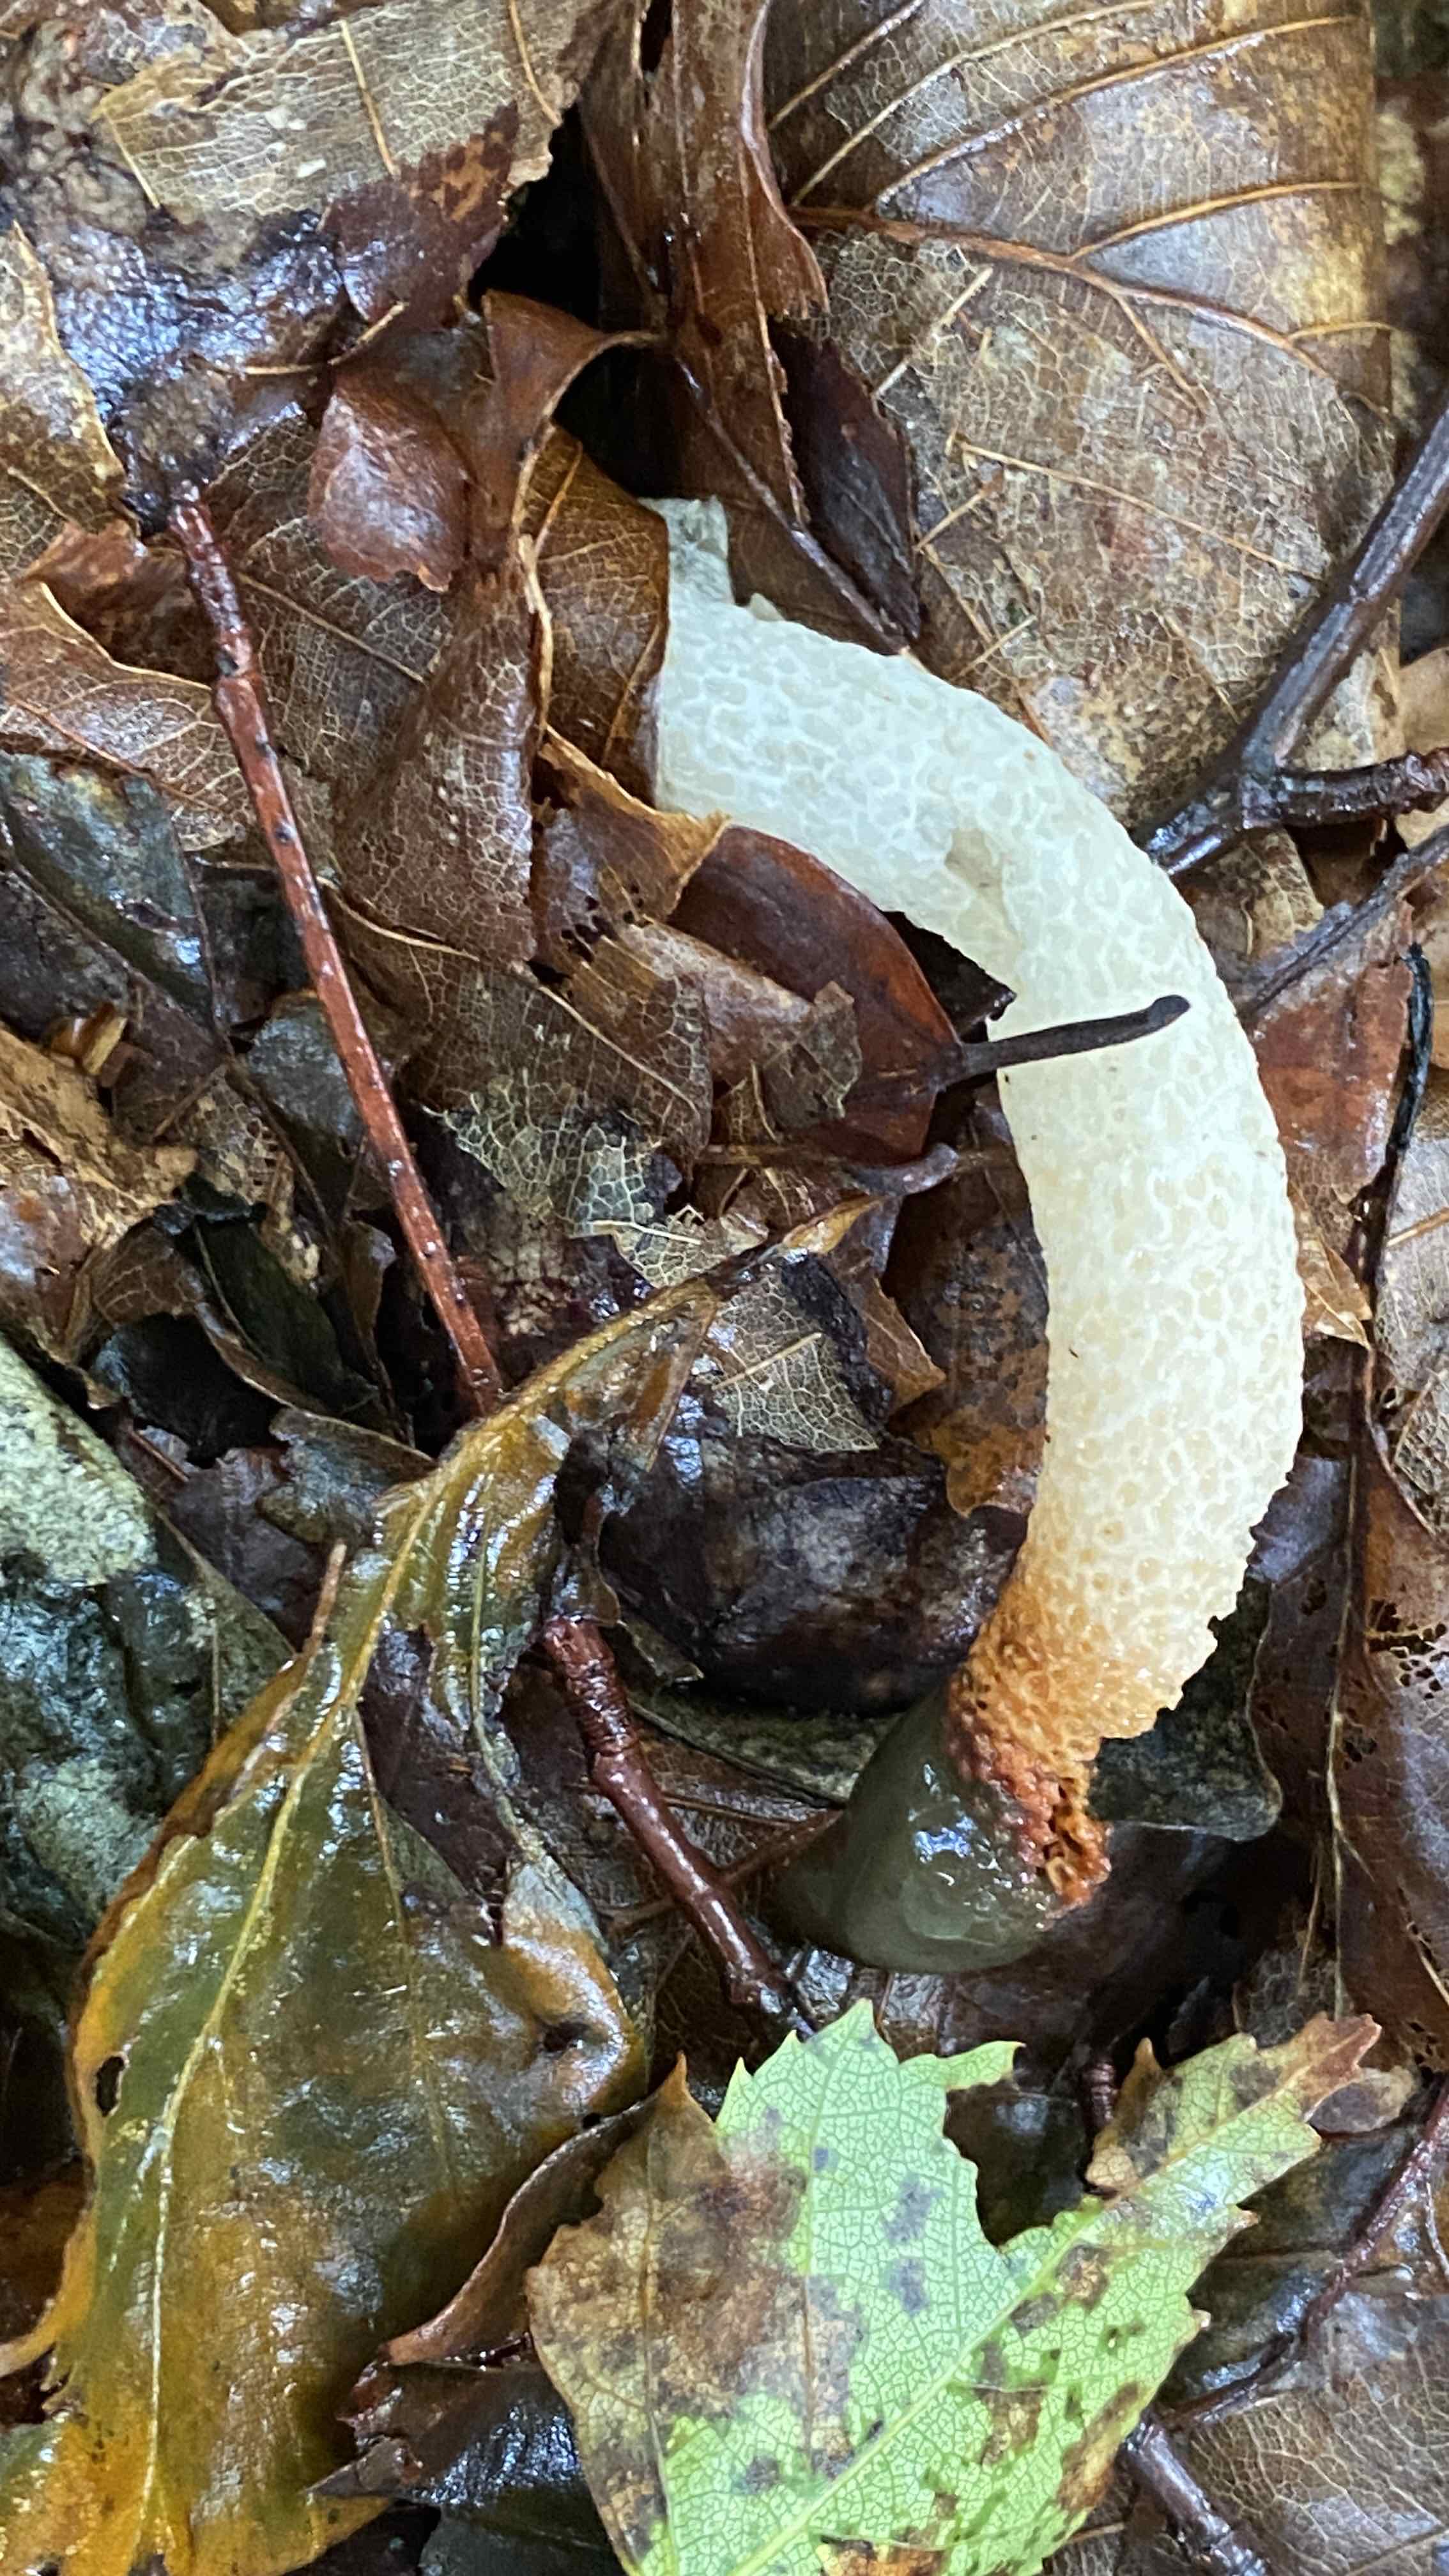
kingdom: Fungi
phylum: Basidiomycota
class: Agaricomycetes
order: Phallales
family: Phallaceae
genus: Mutinus
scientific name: Mutinus caninus
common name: hunde-stinksvamp
